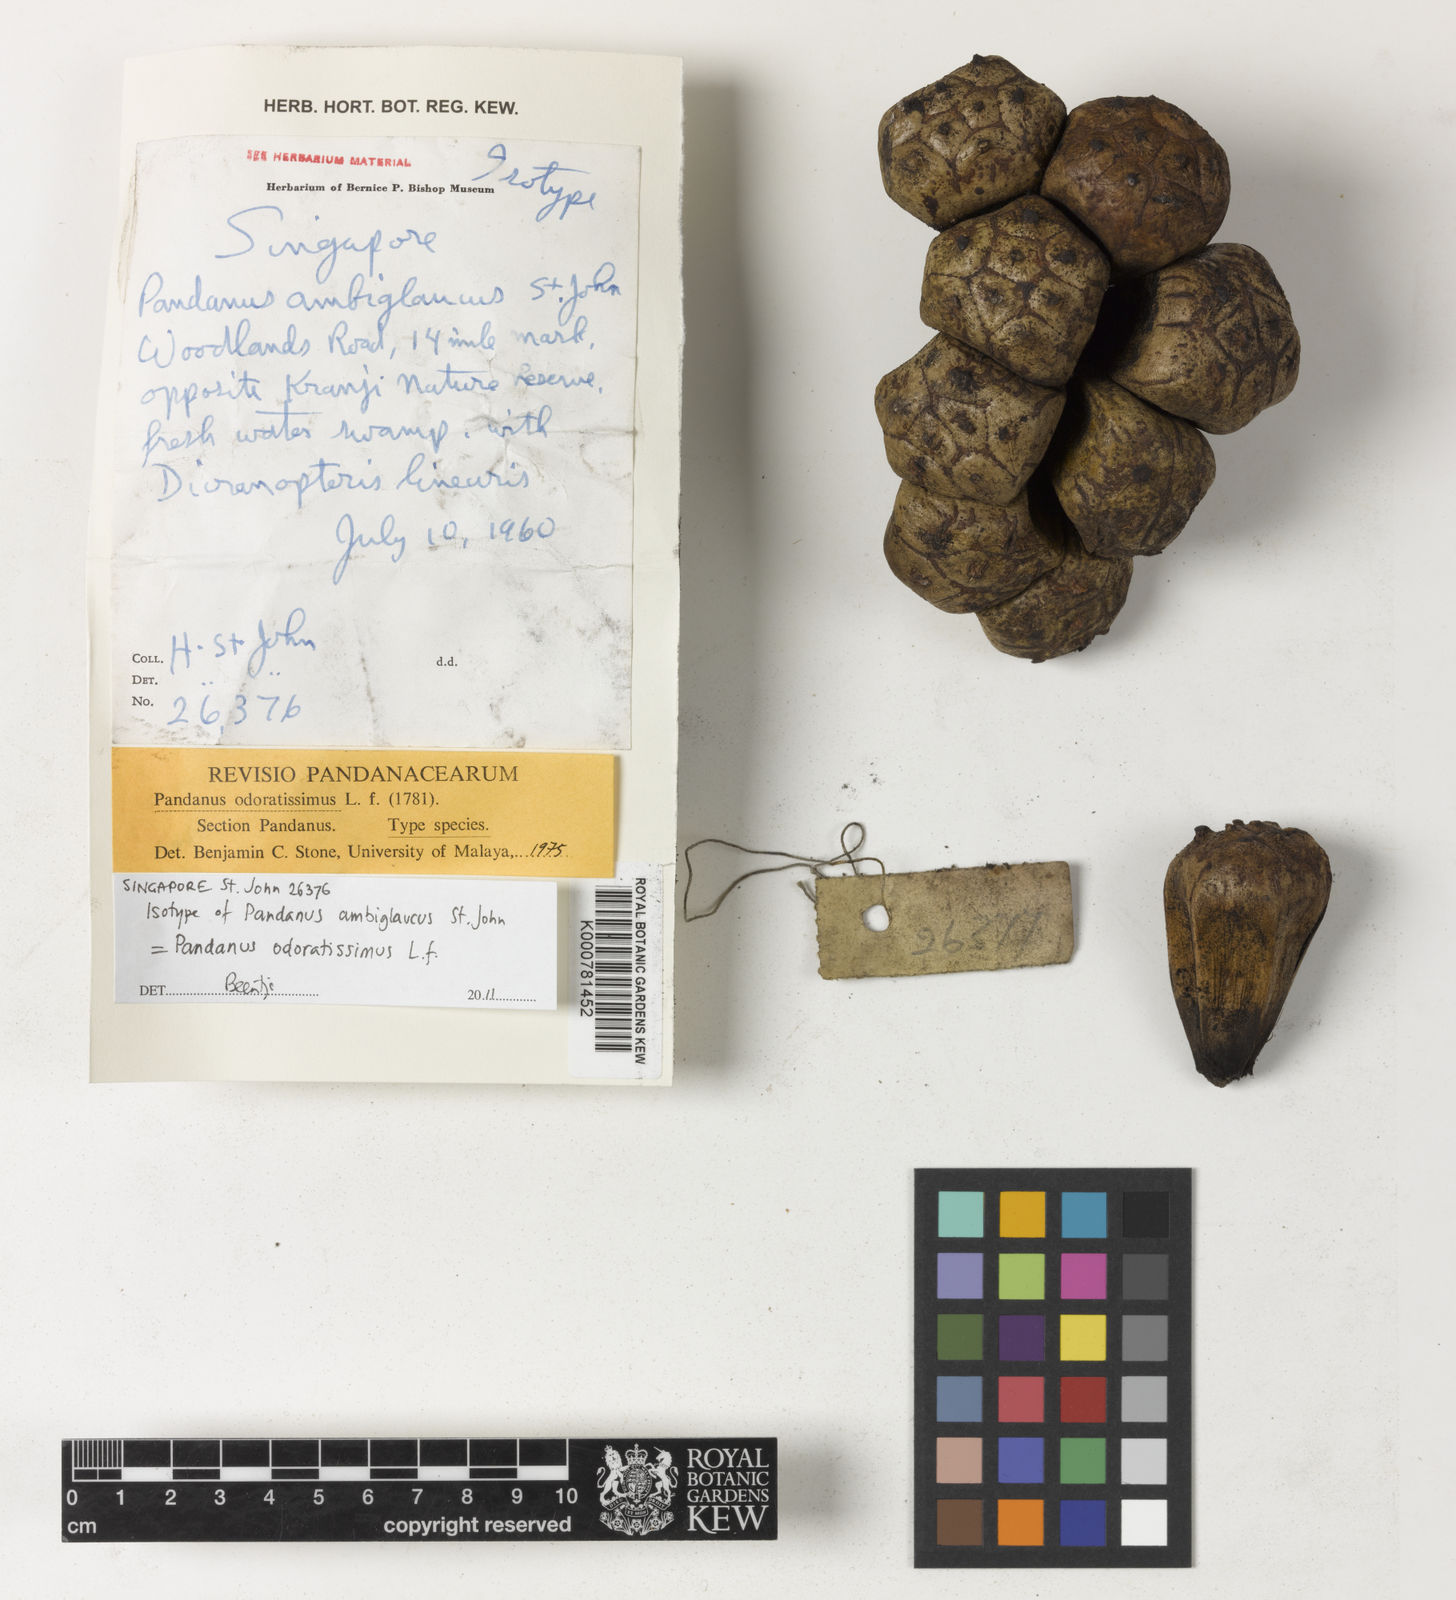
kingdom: Plantae
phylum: Tracheophyta
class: Liliopsida
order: Pandanales
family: Pandanaceae
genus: Pandanus
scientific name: Pandanus odorifer
